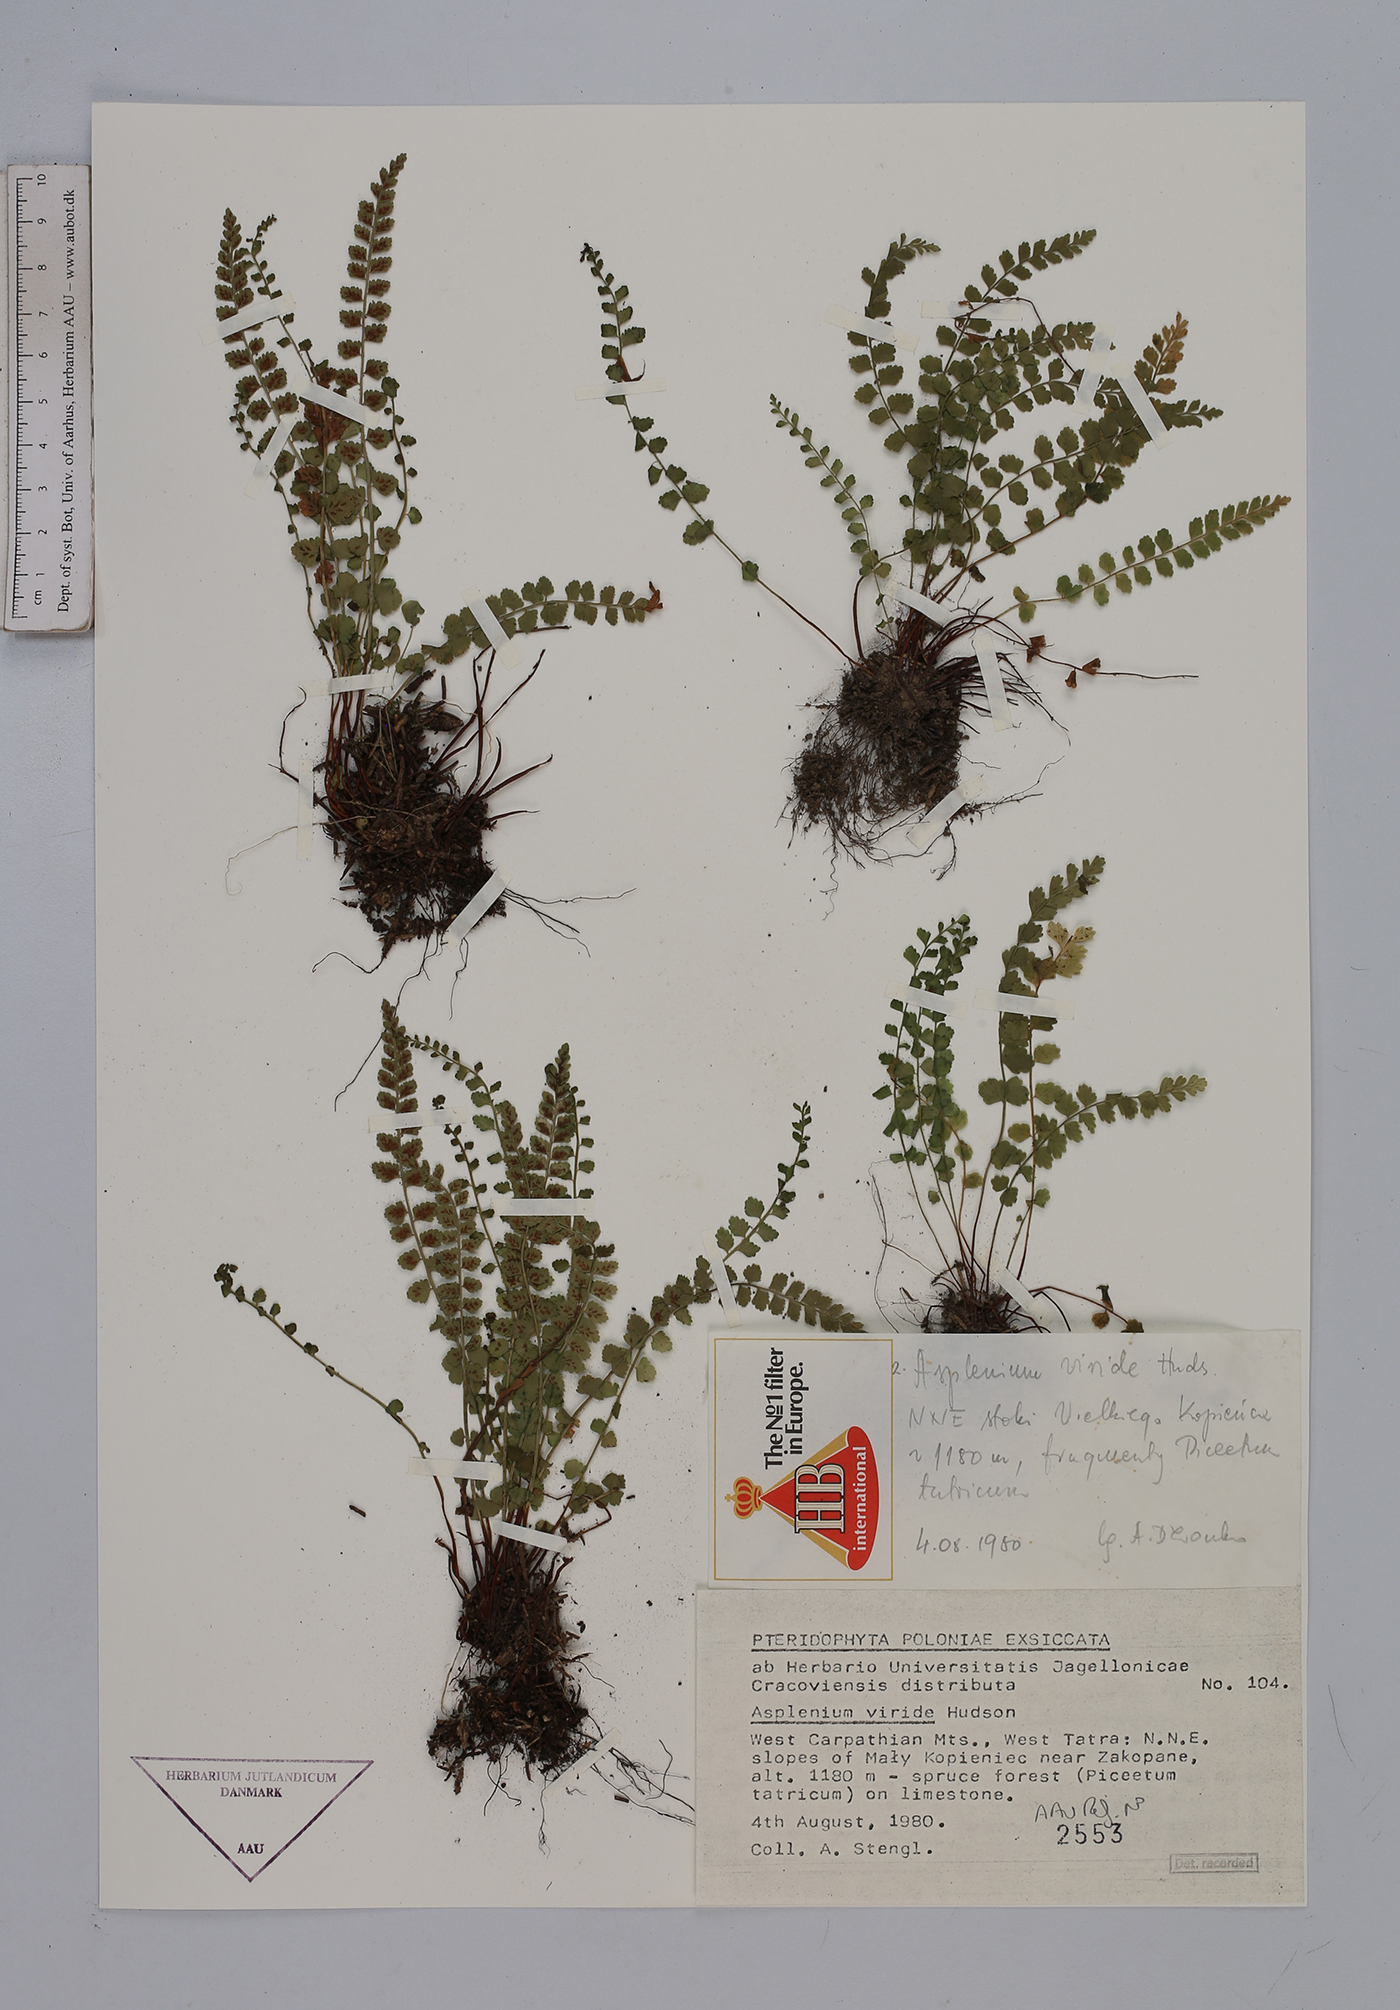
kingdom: Plantae
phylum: Tracheophyta
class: Polypodiopsida
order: Polypodiales
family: Aspleniaceae
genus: Asplenium
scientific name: Asplenium viride
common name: Green spleenwort
